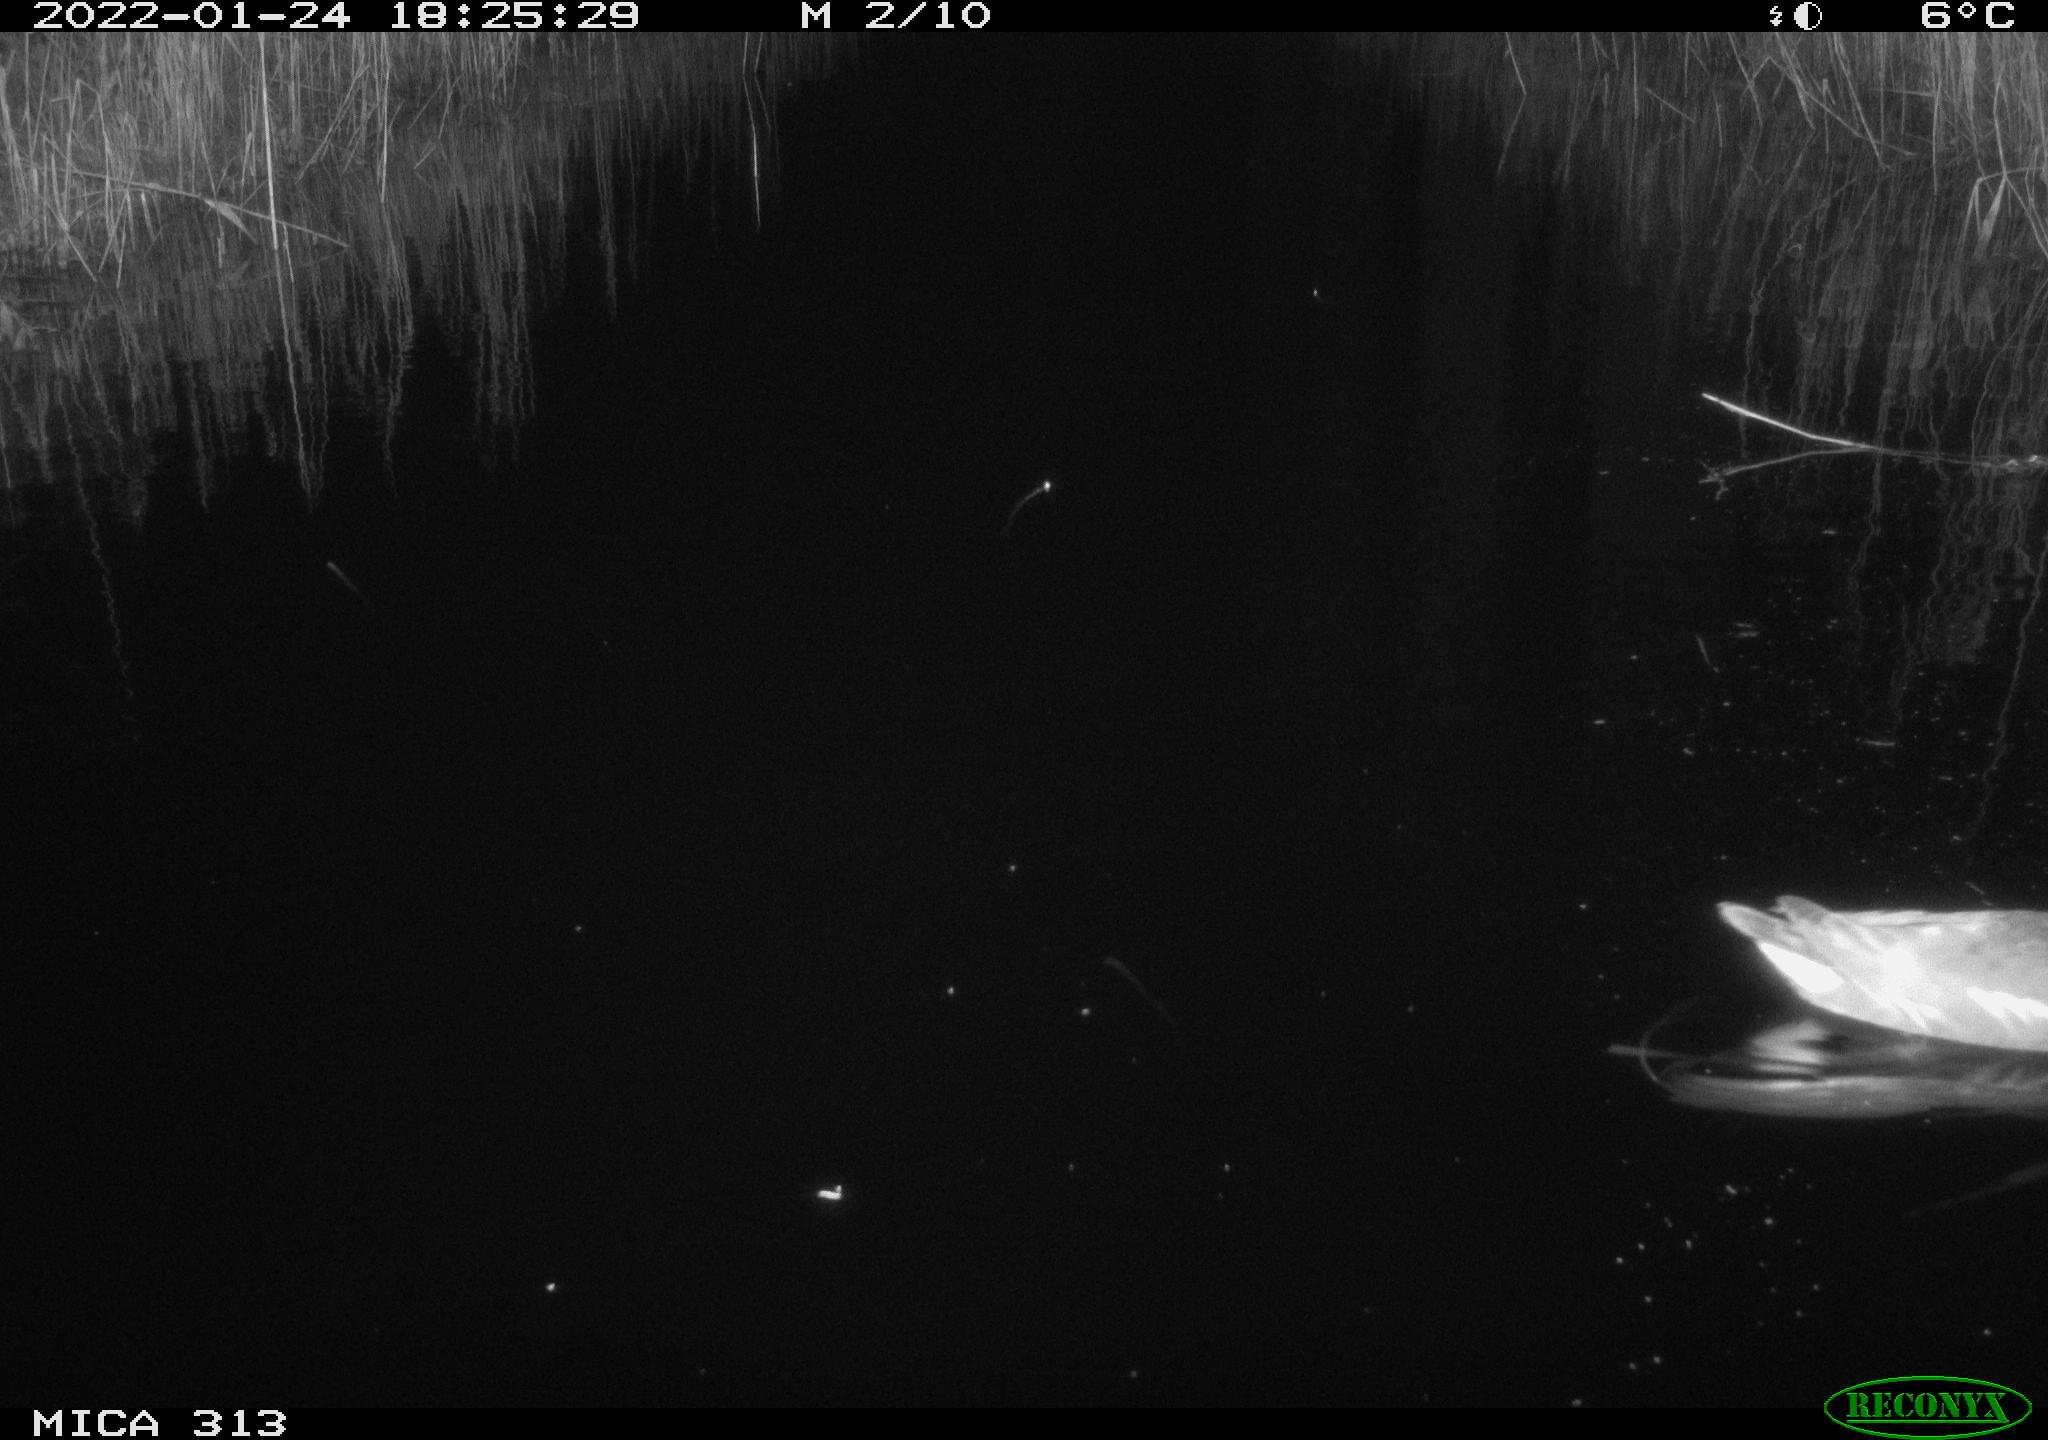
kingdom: Animalia
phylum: Chordata
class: Aves
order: Anseriformes
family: Anatidae
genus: Anas
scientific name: Anas
